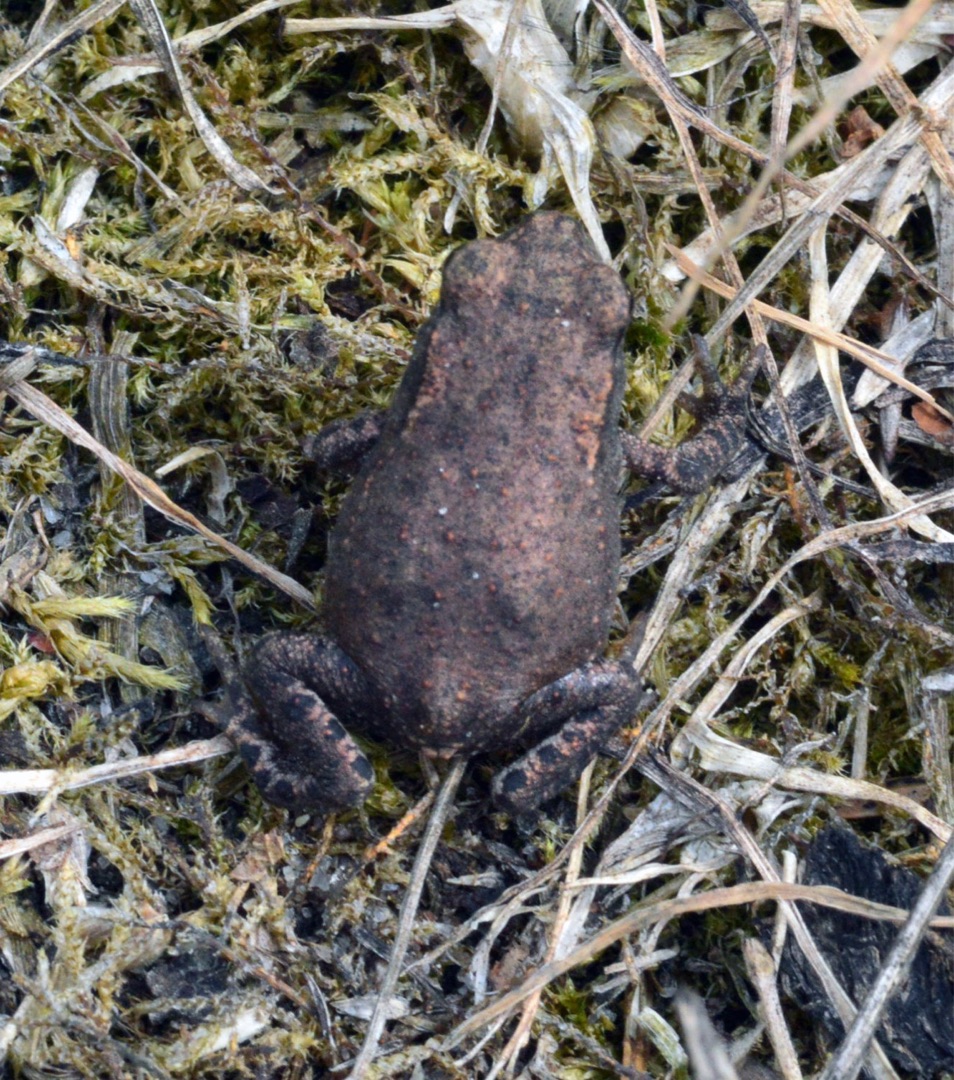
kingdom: Animalia
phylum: Chordata
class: Amphibia
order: Anura
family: Bufonidae
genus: Bufo
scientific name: Bufo bufo
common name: Skrubtudse
